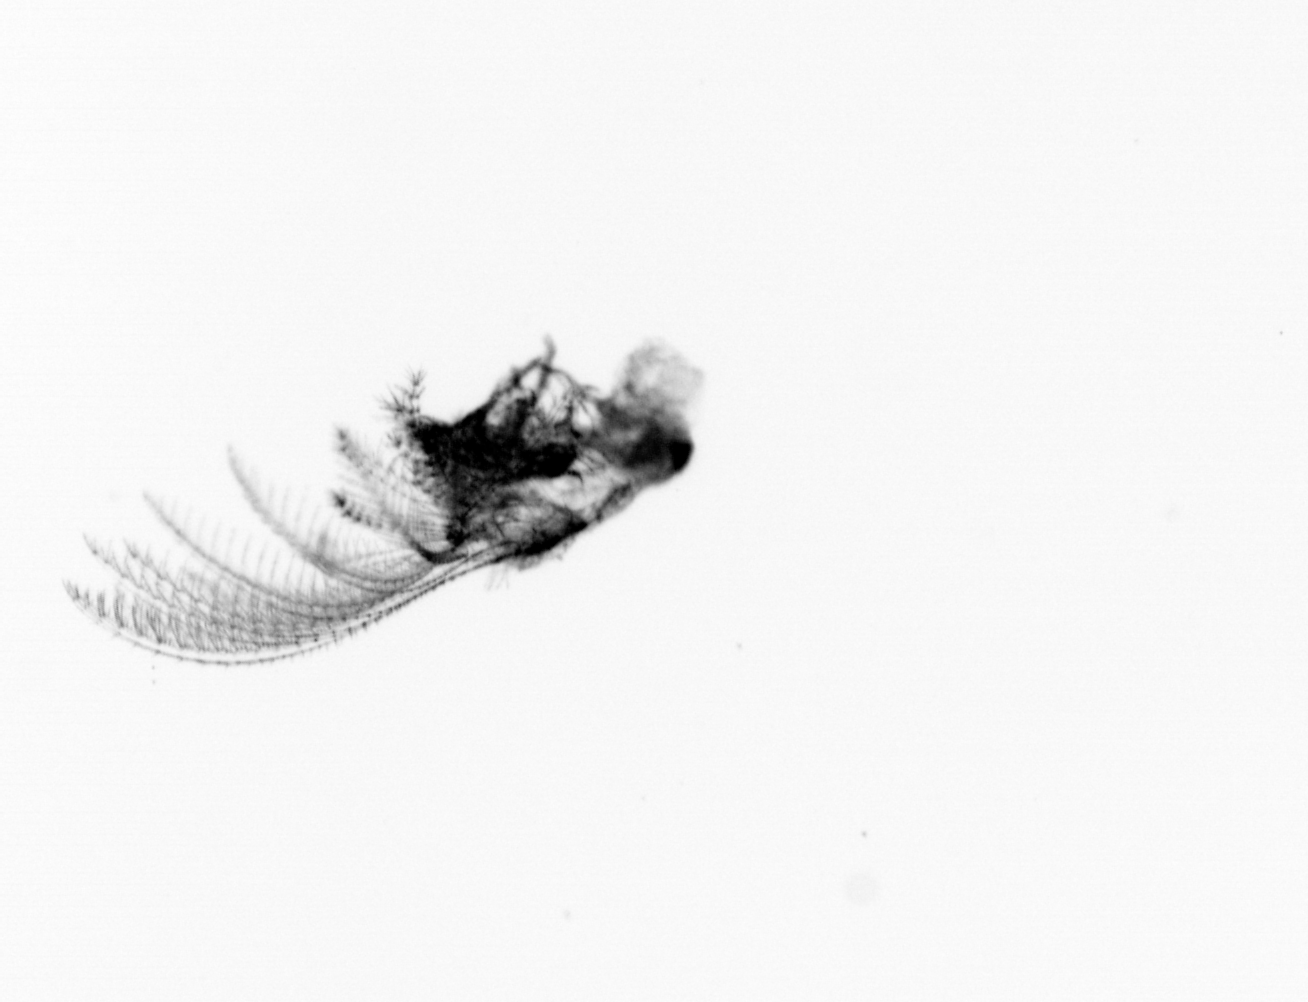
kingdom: Animalia
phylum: Arthropoda
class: Maxillopoda
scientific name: Maxillopoda
